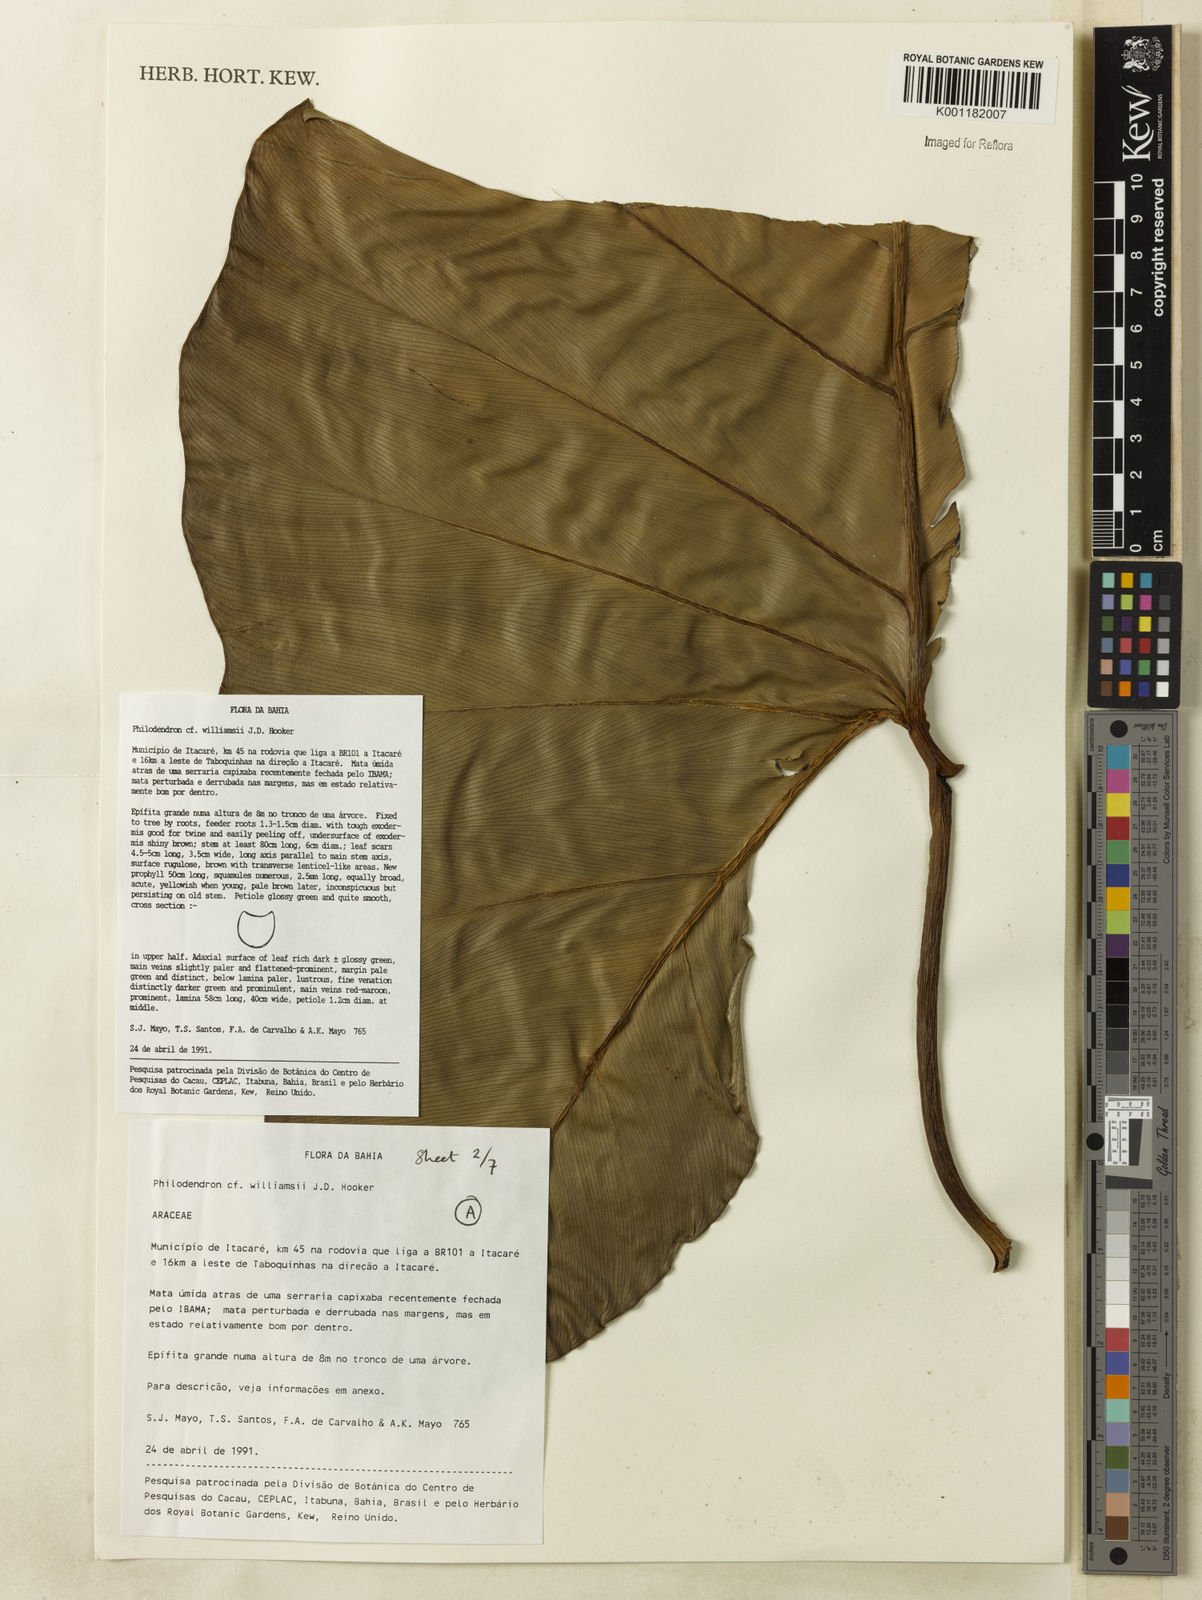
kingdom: Plantae
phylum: Tracheophyta
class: Liliopsida
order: Alismatales
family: Araceae
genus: Thaumatophyllum
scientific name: Thaumatophyllum williamsii
